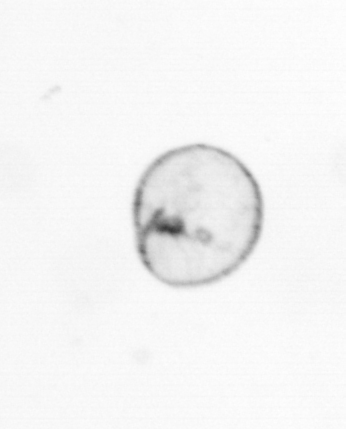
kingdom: Chromista
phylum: Myzozoa
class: Dinophyceae
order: Noctilucales
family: Noctilucaceae
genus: Noctiluca
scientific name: Noctiluca scintillans
